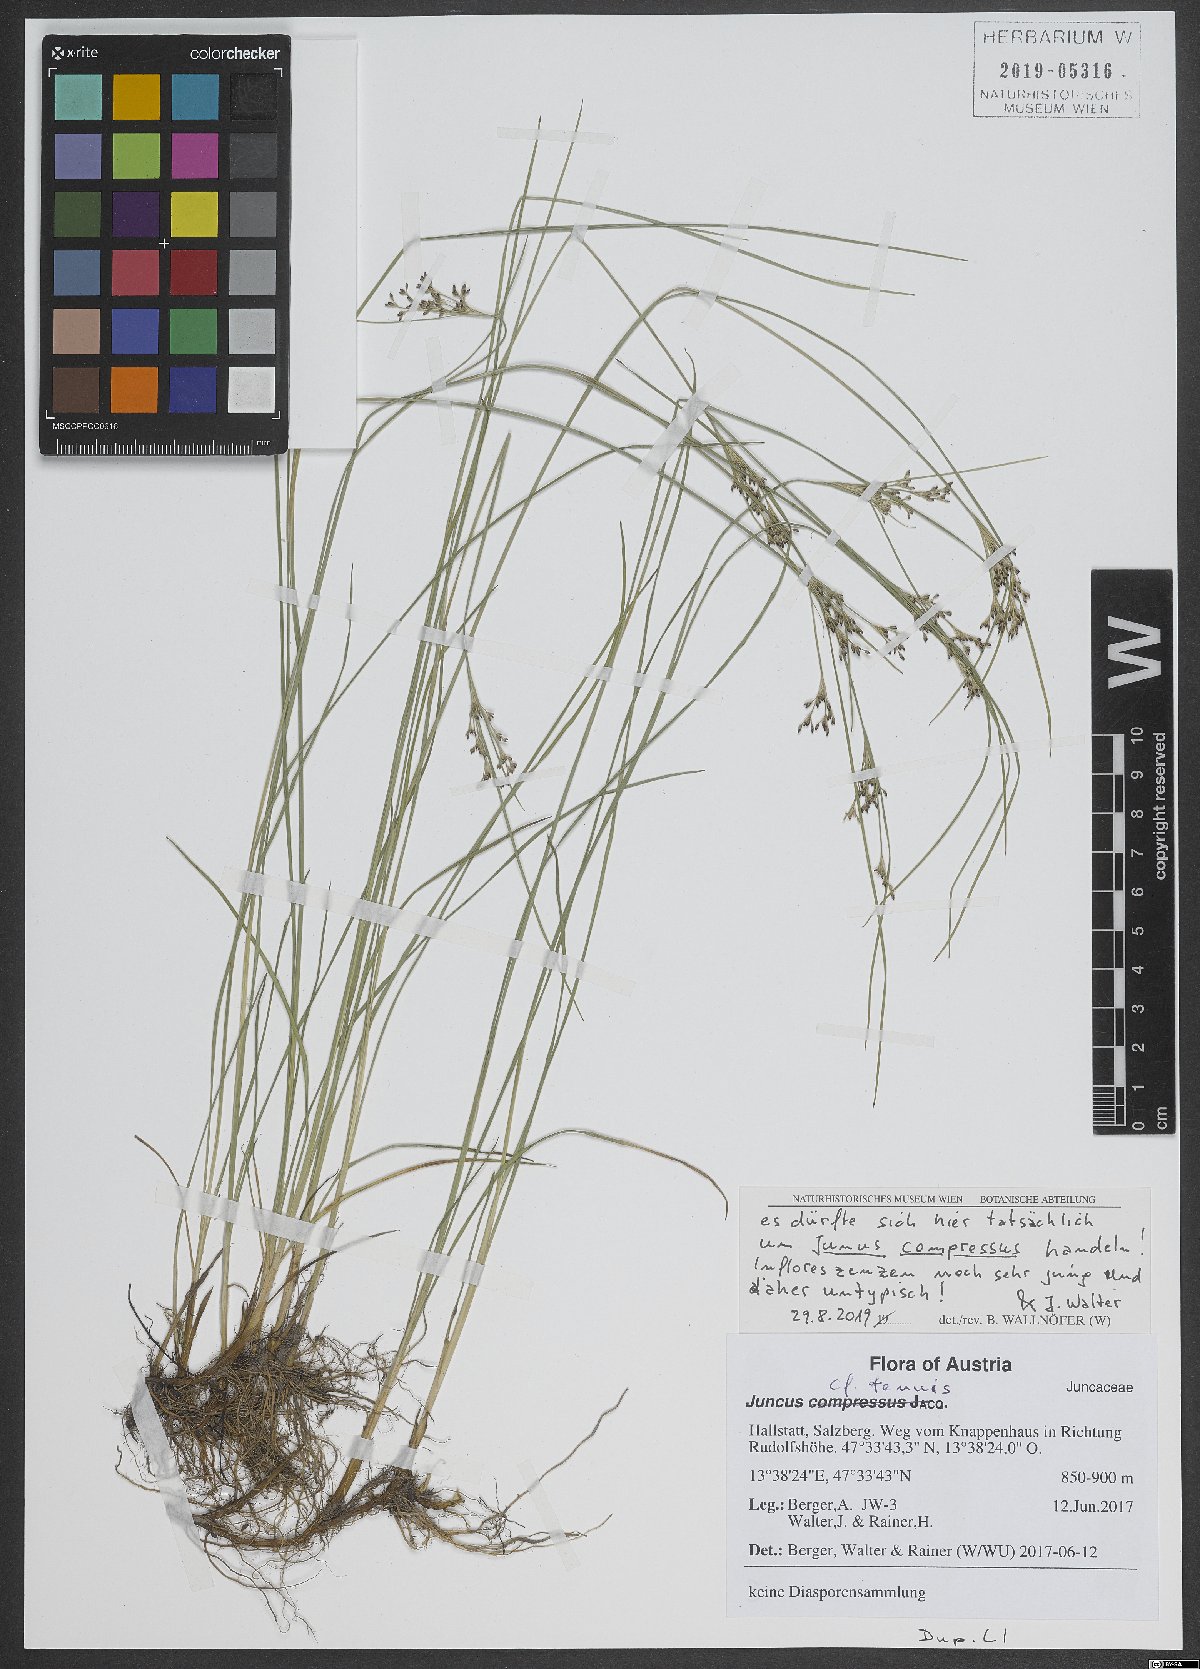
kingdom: Plantae
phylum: Tracheophyta
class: Liliopsida
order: Poales
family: Juncaceae
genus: Juncus
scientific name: Juncus compressus
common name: Round-fruited rush
